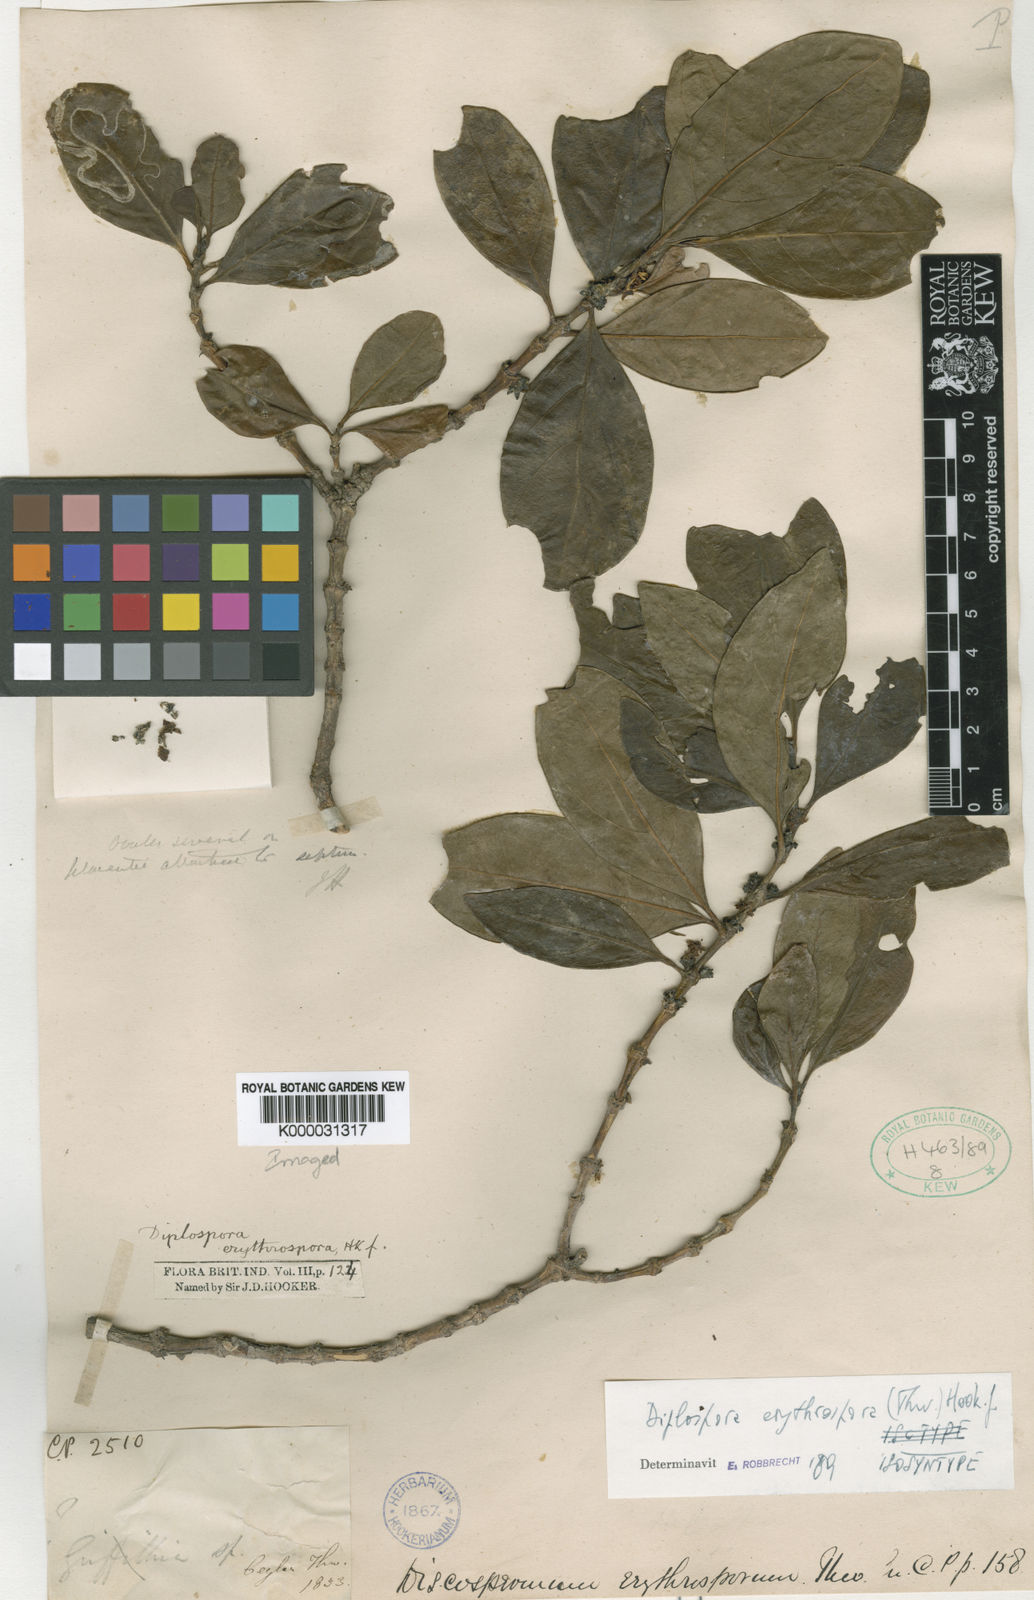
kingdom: Plantae
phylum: Tracheophyta
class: Magnoliopsida
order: Gentianales
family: Rubiaceae
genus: Diplospora
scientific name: Diplospora
